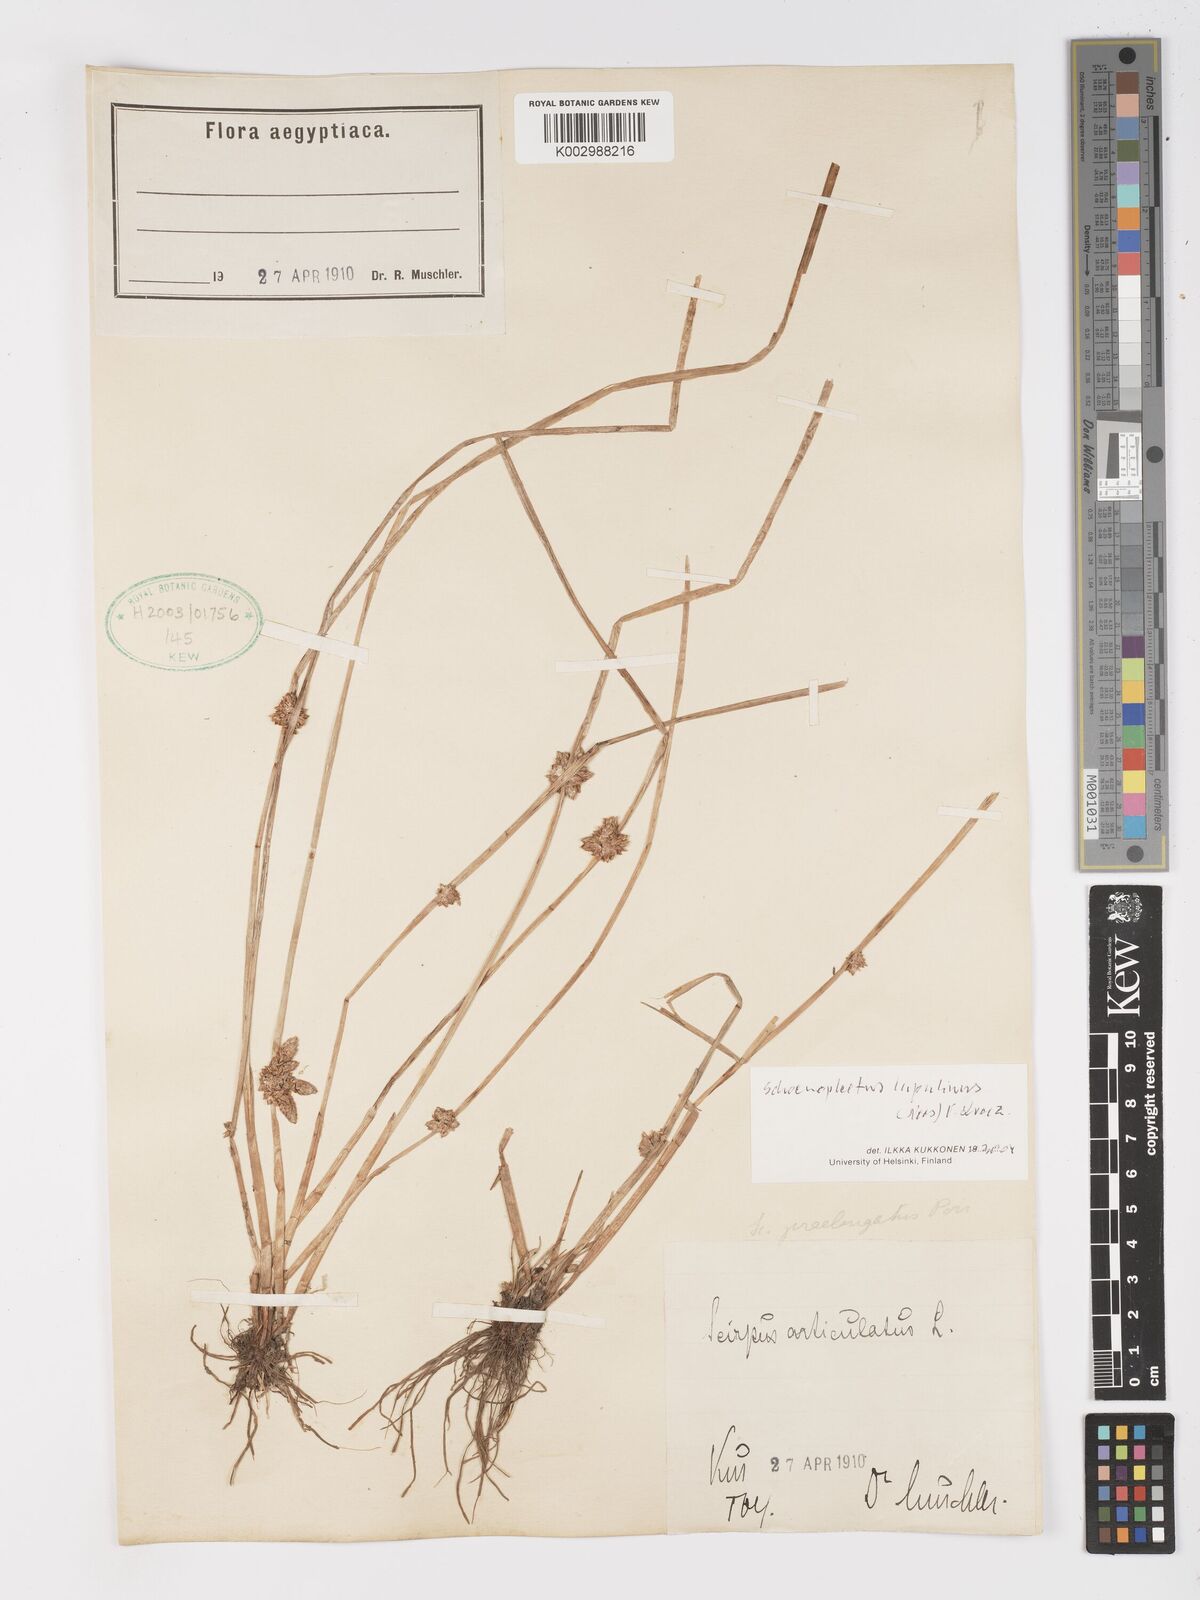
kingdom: Plantae
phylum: Tracheophyta
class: Liliopsida
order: Poales
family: Cyperaceae
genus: Schoenoplectiella
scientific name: Schoenoplectiella roylei
